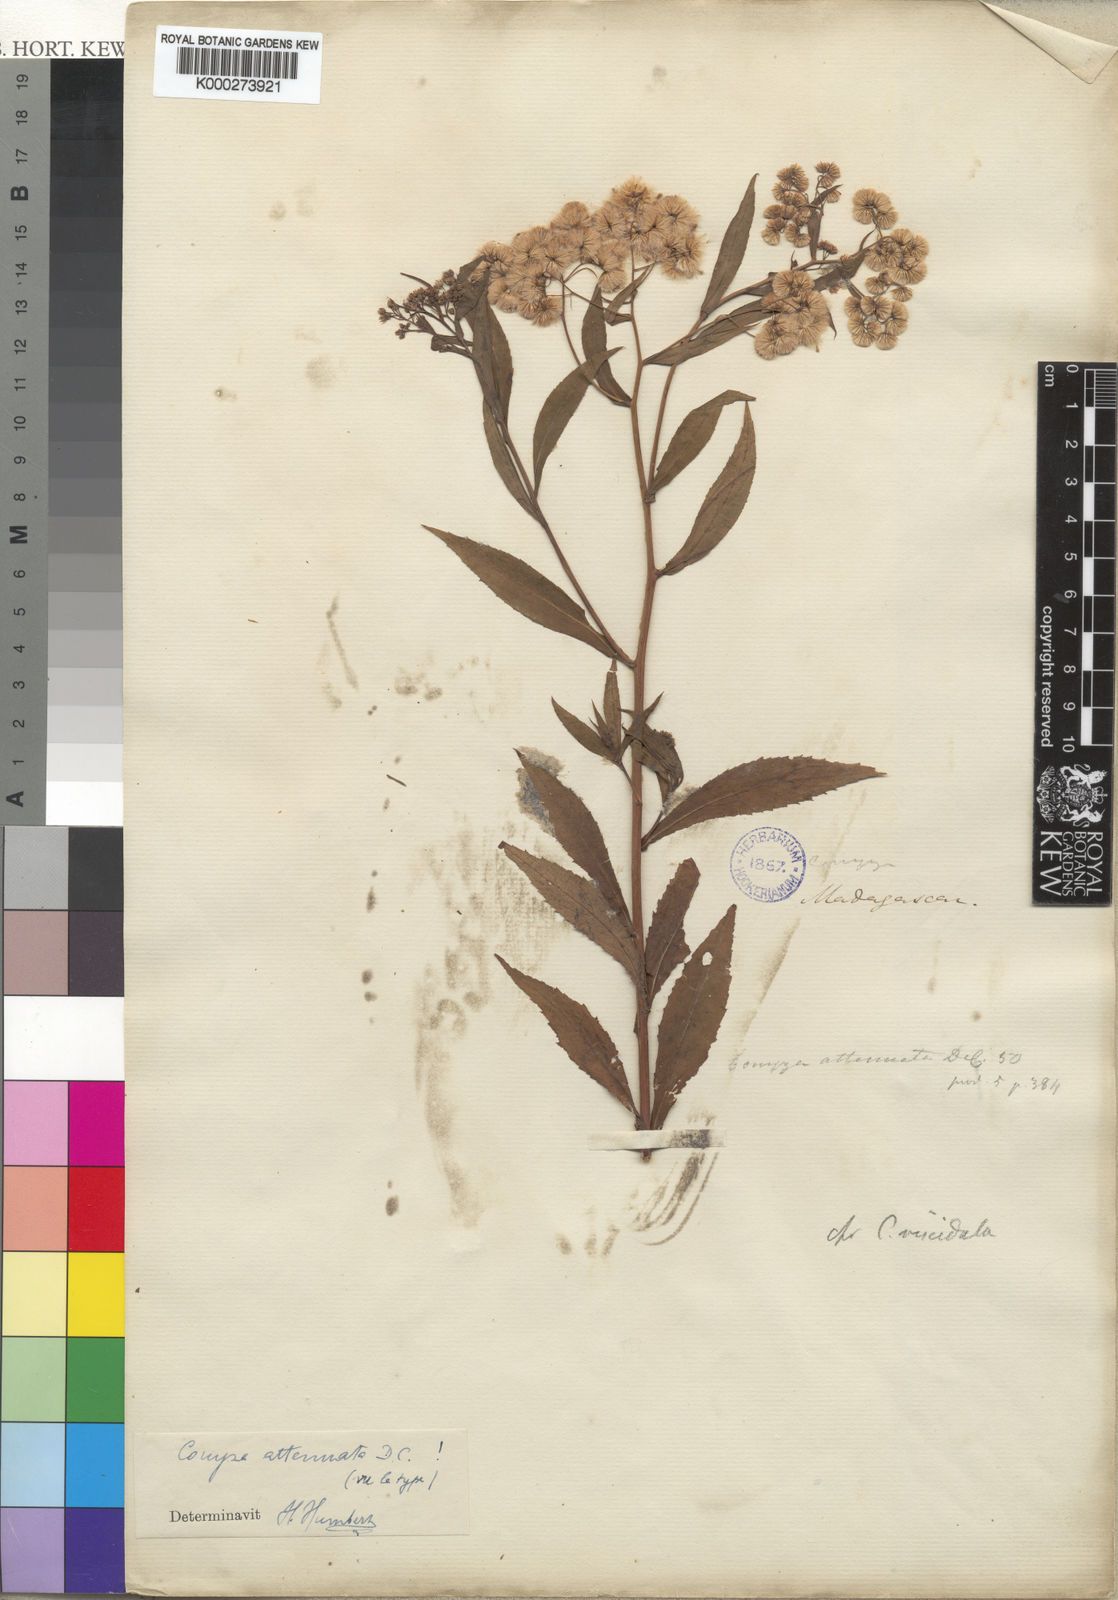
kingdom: Plantae
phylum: Tracheophyta
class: Magnoliopsida
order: Asterales
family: Asteraceae
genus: Nidorella
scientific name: Nidorella attenuata
